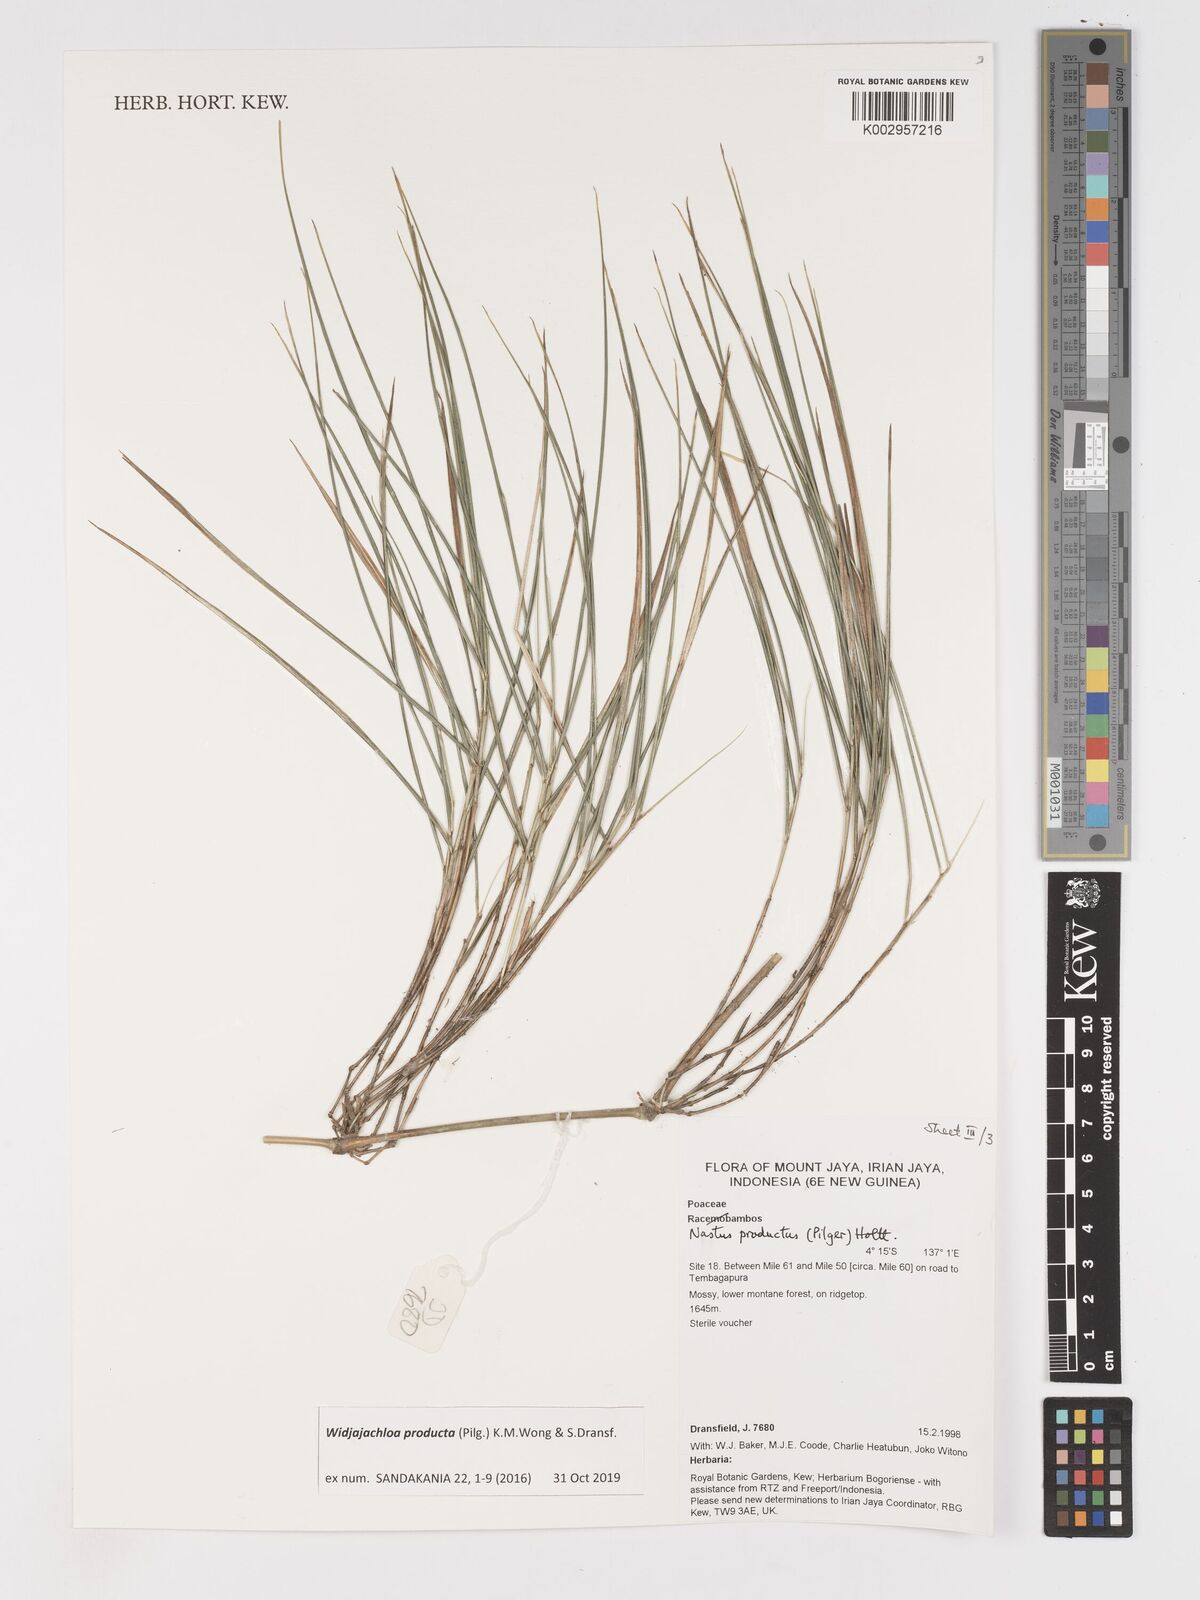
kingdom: Plantae
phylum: Tracheophyta
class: Liliopsida
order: Poales
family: Poaceae
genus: Widjajachloa
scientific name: Widjajachloa
